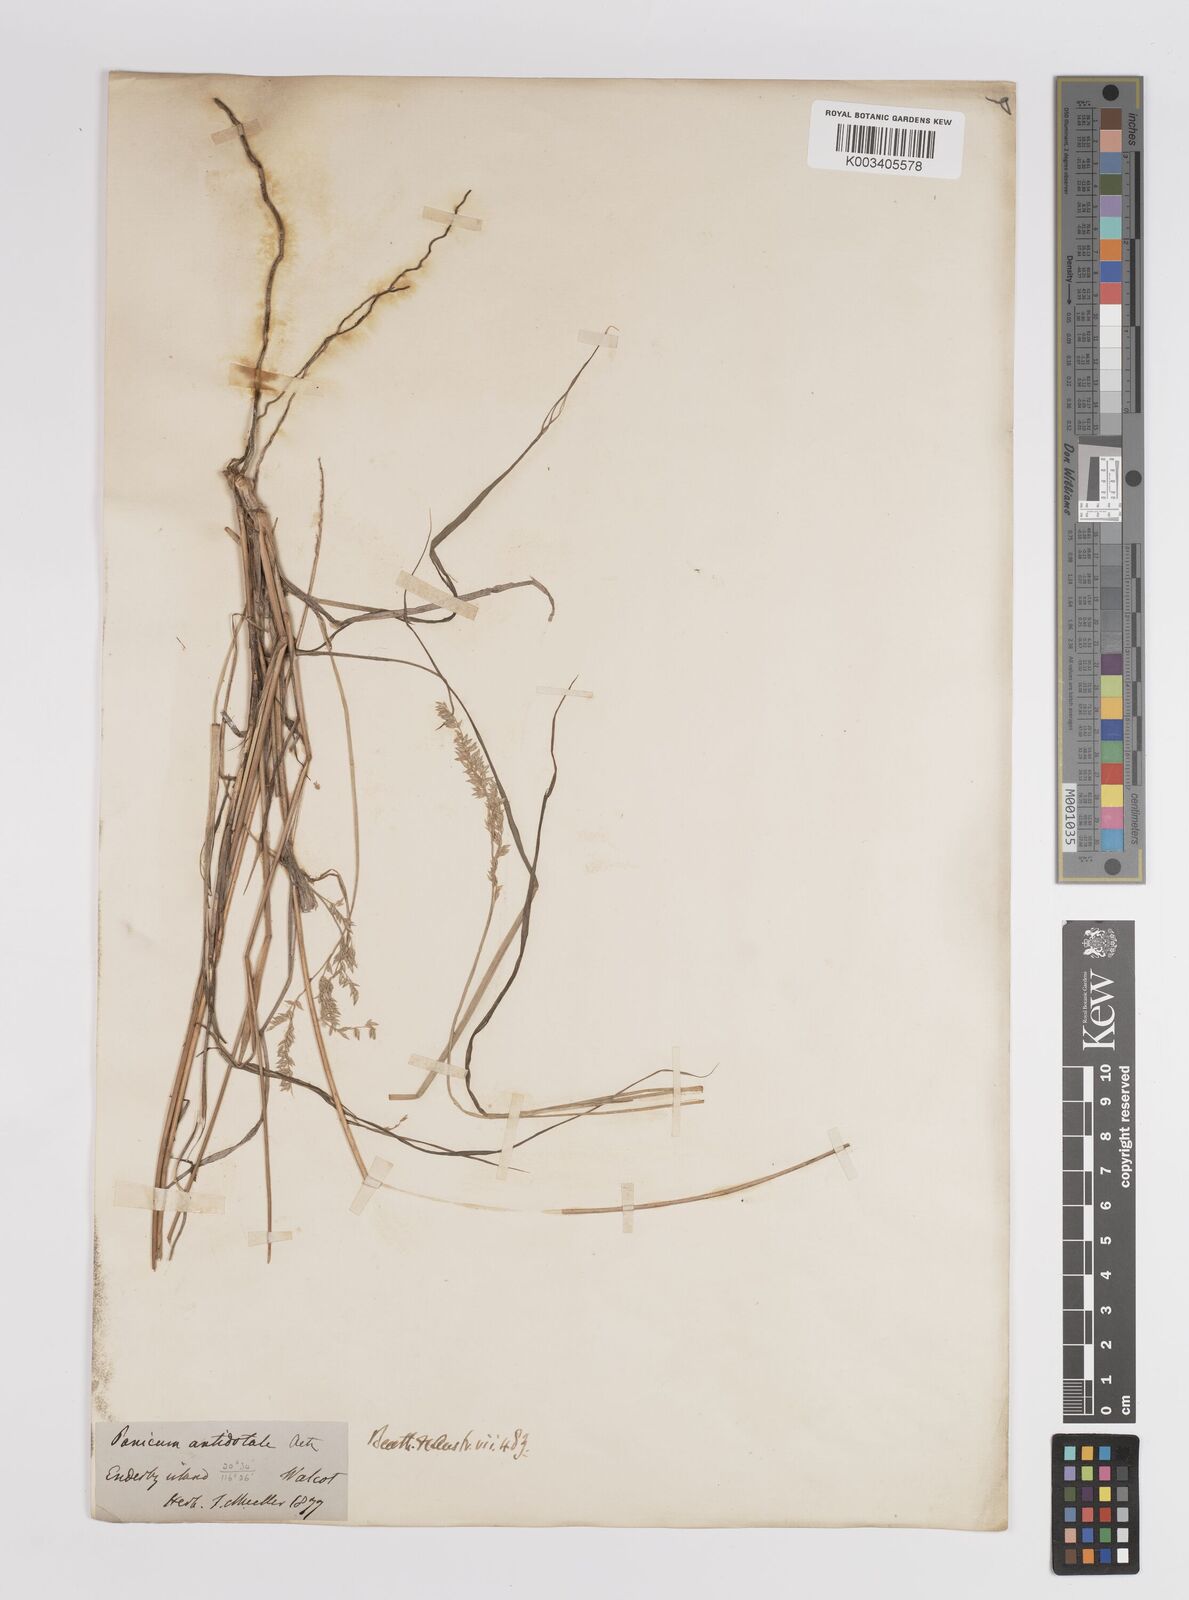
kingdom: Plantae
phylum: Tracheophyta
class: Liliopsida
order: Poales
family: Poaceae
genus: Panicum
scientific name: Panicum
